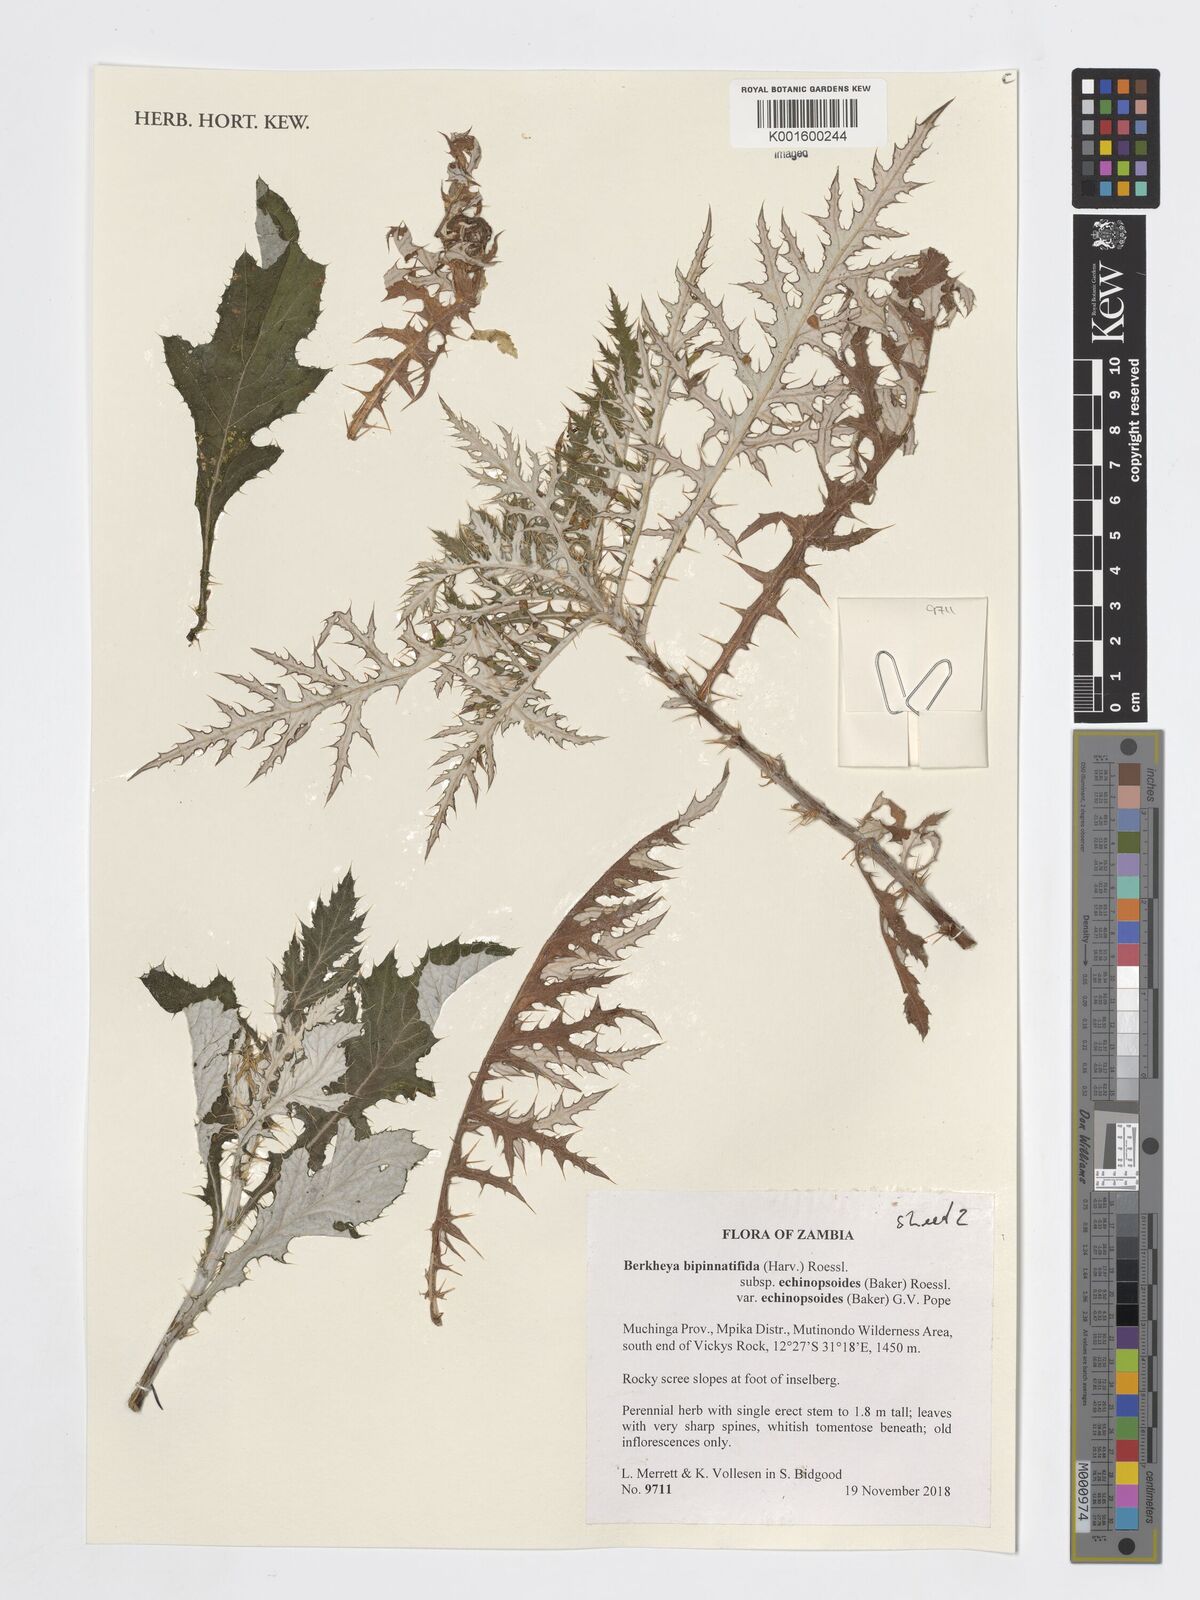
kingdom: Plantae
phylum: Tracheophyta
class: Magnoliopsida
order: Asterales
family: Asteraceae
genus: Berkheya
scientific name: Berkheya bipinnatifida
